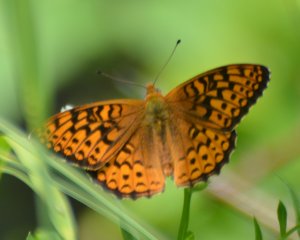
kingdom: Animalia
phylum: Arthropoda
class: Insecta
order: Lepidoptera
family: Nymphalidae
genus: Speyeria
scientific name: Speyeria atlantis
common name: Atlantis Fritillary
